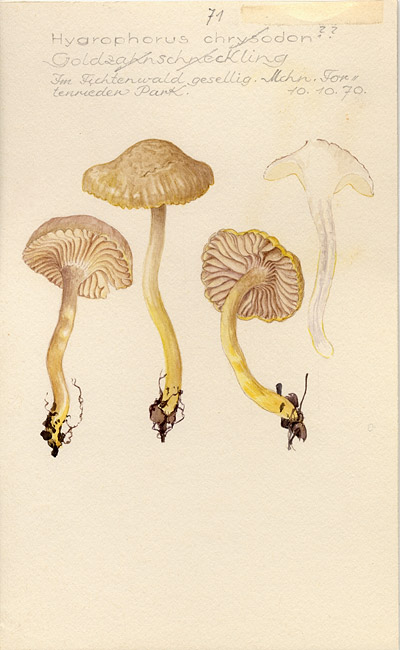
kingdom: Fungi
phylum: Basidiomycota
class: Agaricomycetes
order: Agaricales
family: Hygrophoraceae
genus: Hygrophorus
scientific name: Hygrophorus chrysodon
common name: Gold flecked woodwax
